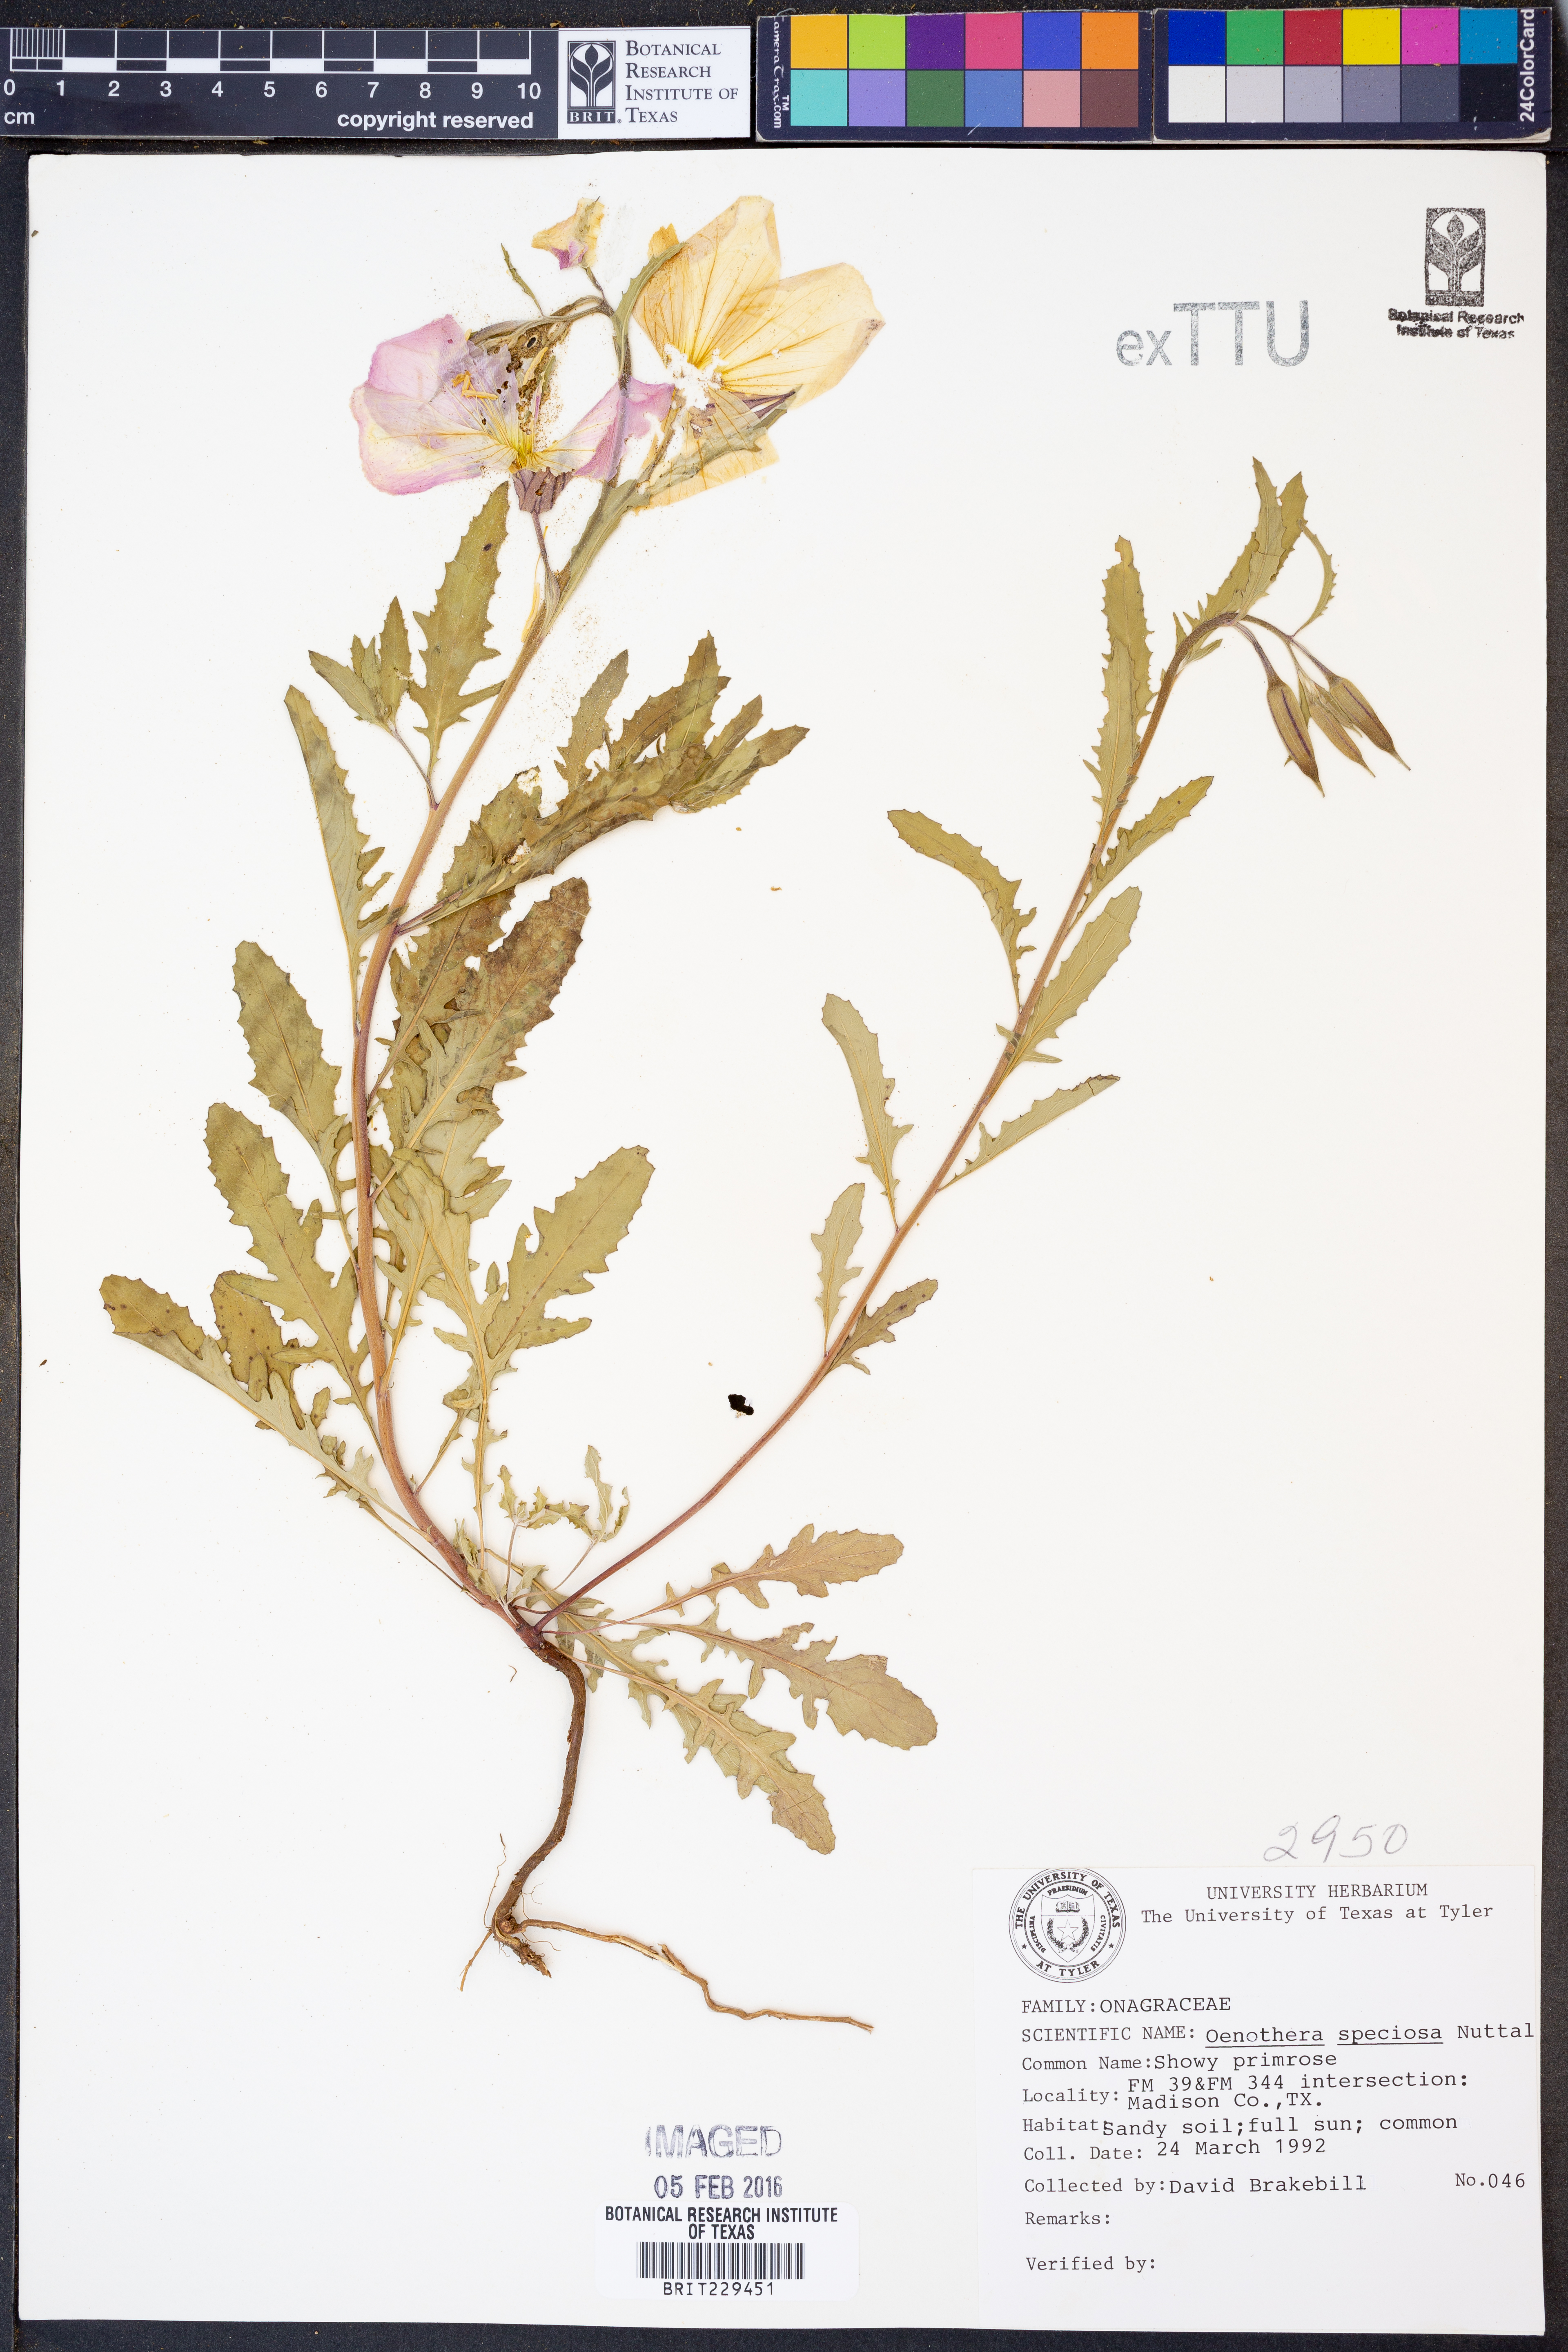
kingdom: Plantae
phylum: Tracheophyta
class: Magnoliopsida
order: Myrtales
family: Onagraceae
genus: Oenothera
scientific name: Oenothera speciosa
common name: White evening-primrose
